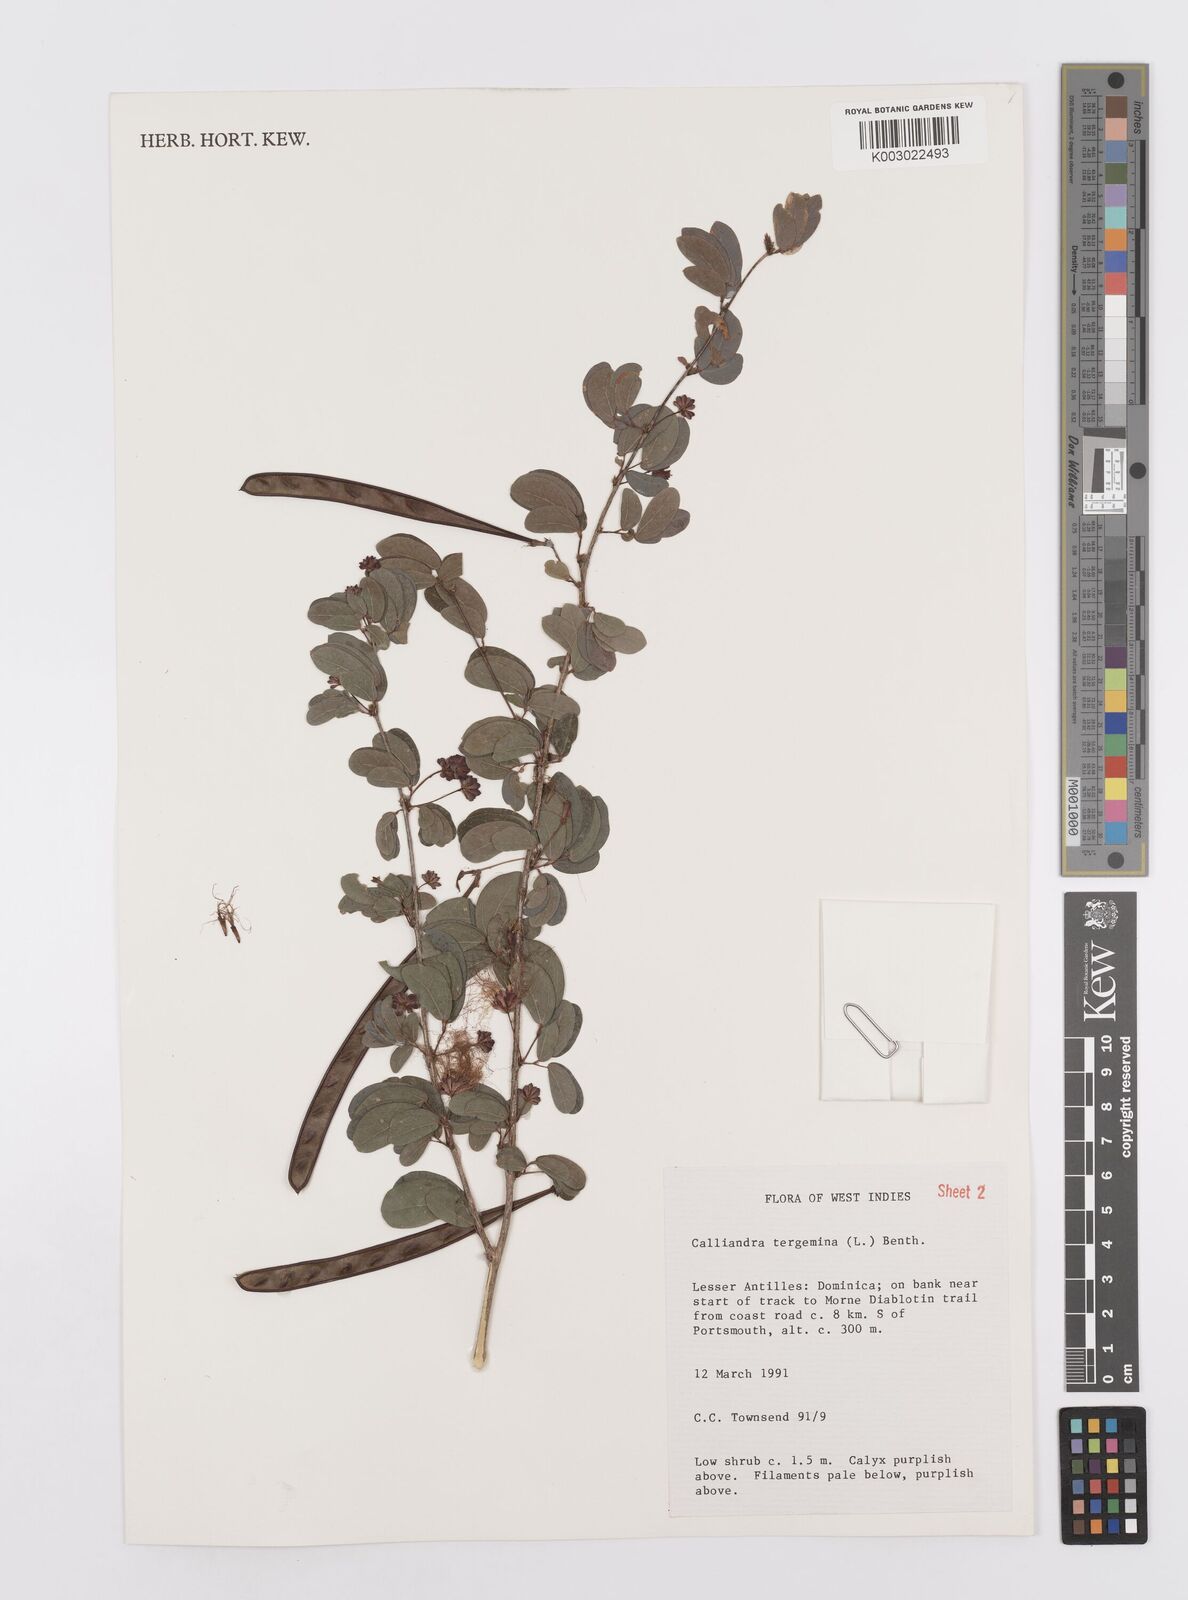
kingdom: Plantae
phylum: Tracheophyta
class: Magnoliopsida
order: Fabales
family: Fabaceae
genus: Calliandra
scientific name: Calliandra tergemina
